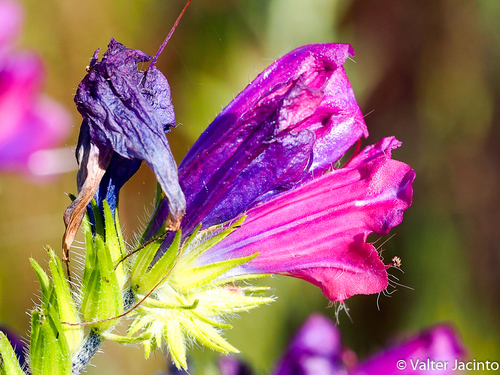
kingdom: Plantae
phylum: Tracheophyta
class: Magnoliopsida
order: Boraginales
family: Boraginaceae
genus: Echium
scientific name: Echium plantagineum
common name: Purple viper's-bugloss
